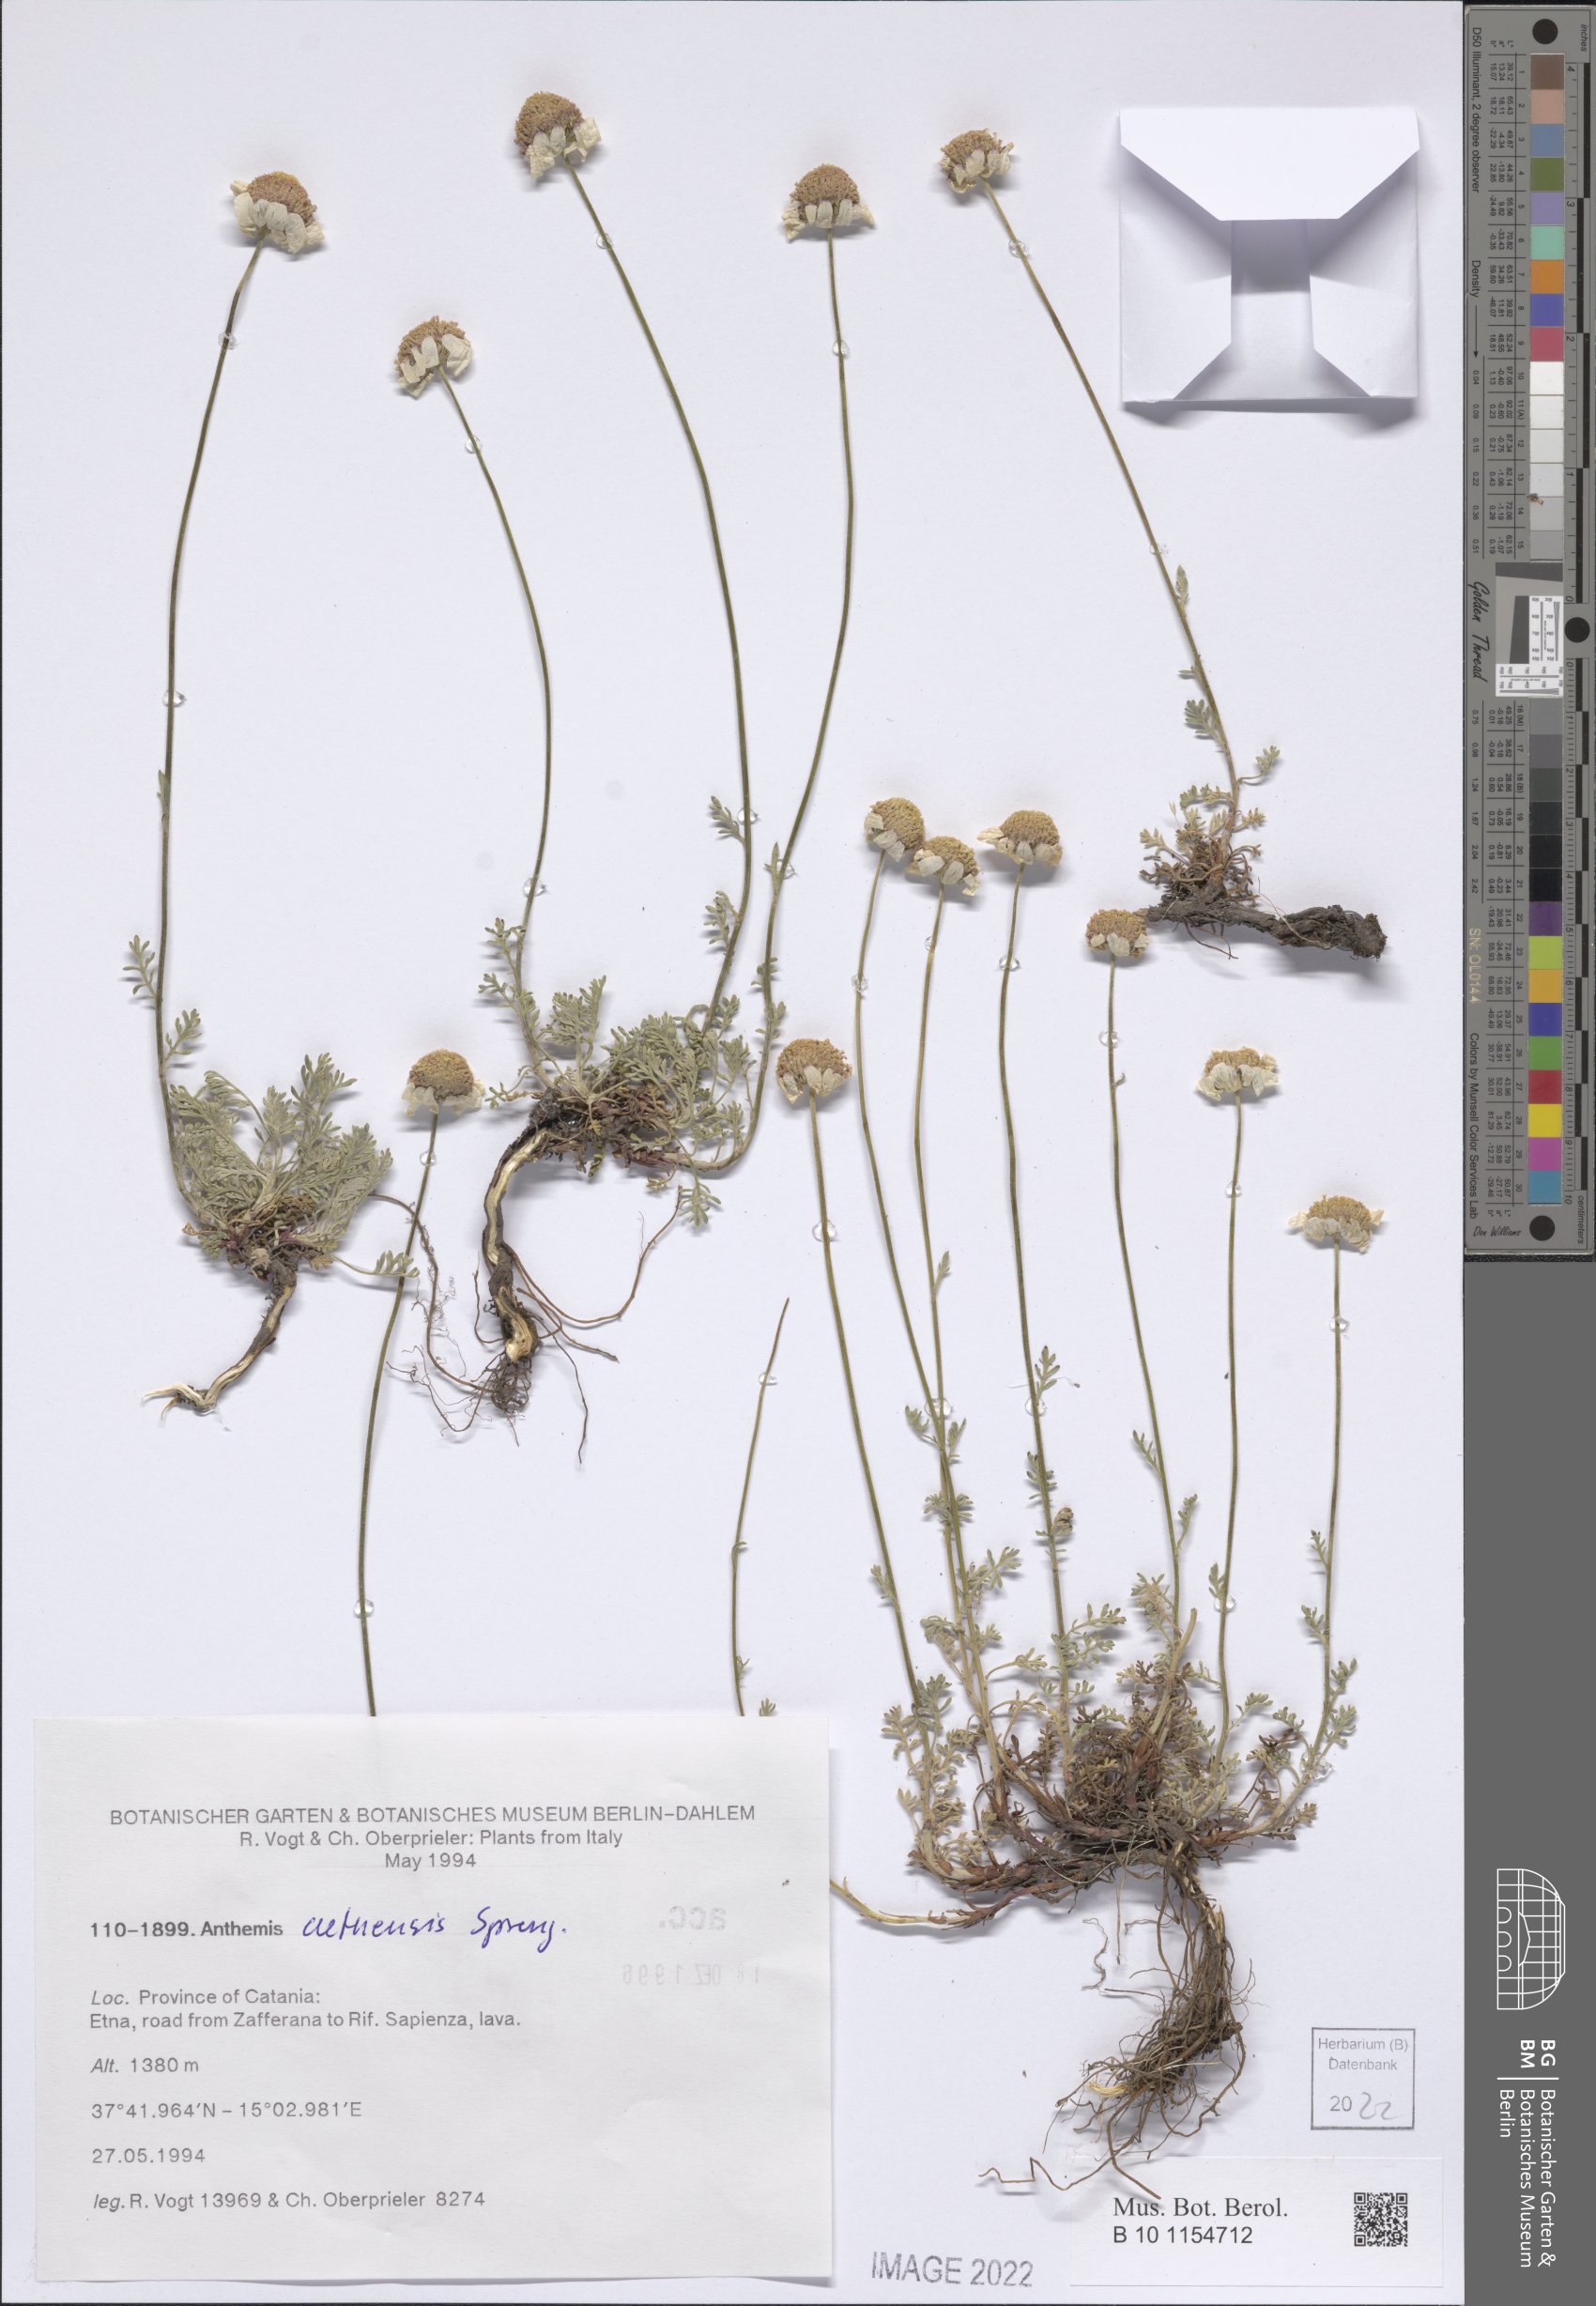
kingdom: Plantae
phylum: Tracheophyta
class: Magnoliopsida
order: Asterales
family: Asteraceae
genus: Anthemis
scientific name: Anthemis aetnensis
